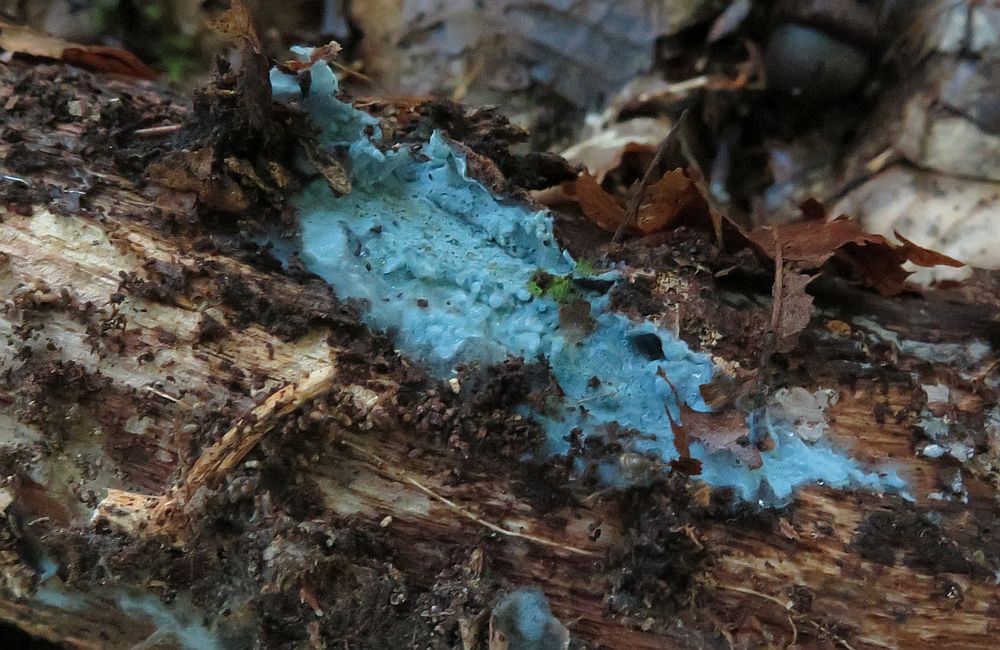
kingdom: Fungi
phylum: Basidiomycota
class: Agaricomycetes
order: Atheliales
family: Atheliaceae
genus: Byssocorticium
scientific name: Byssocorticium atrovirens
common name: blå førnehinde
